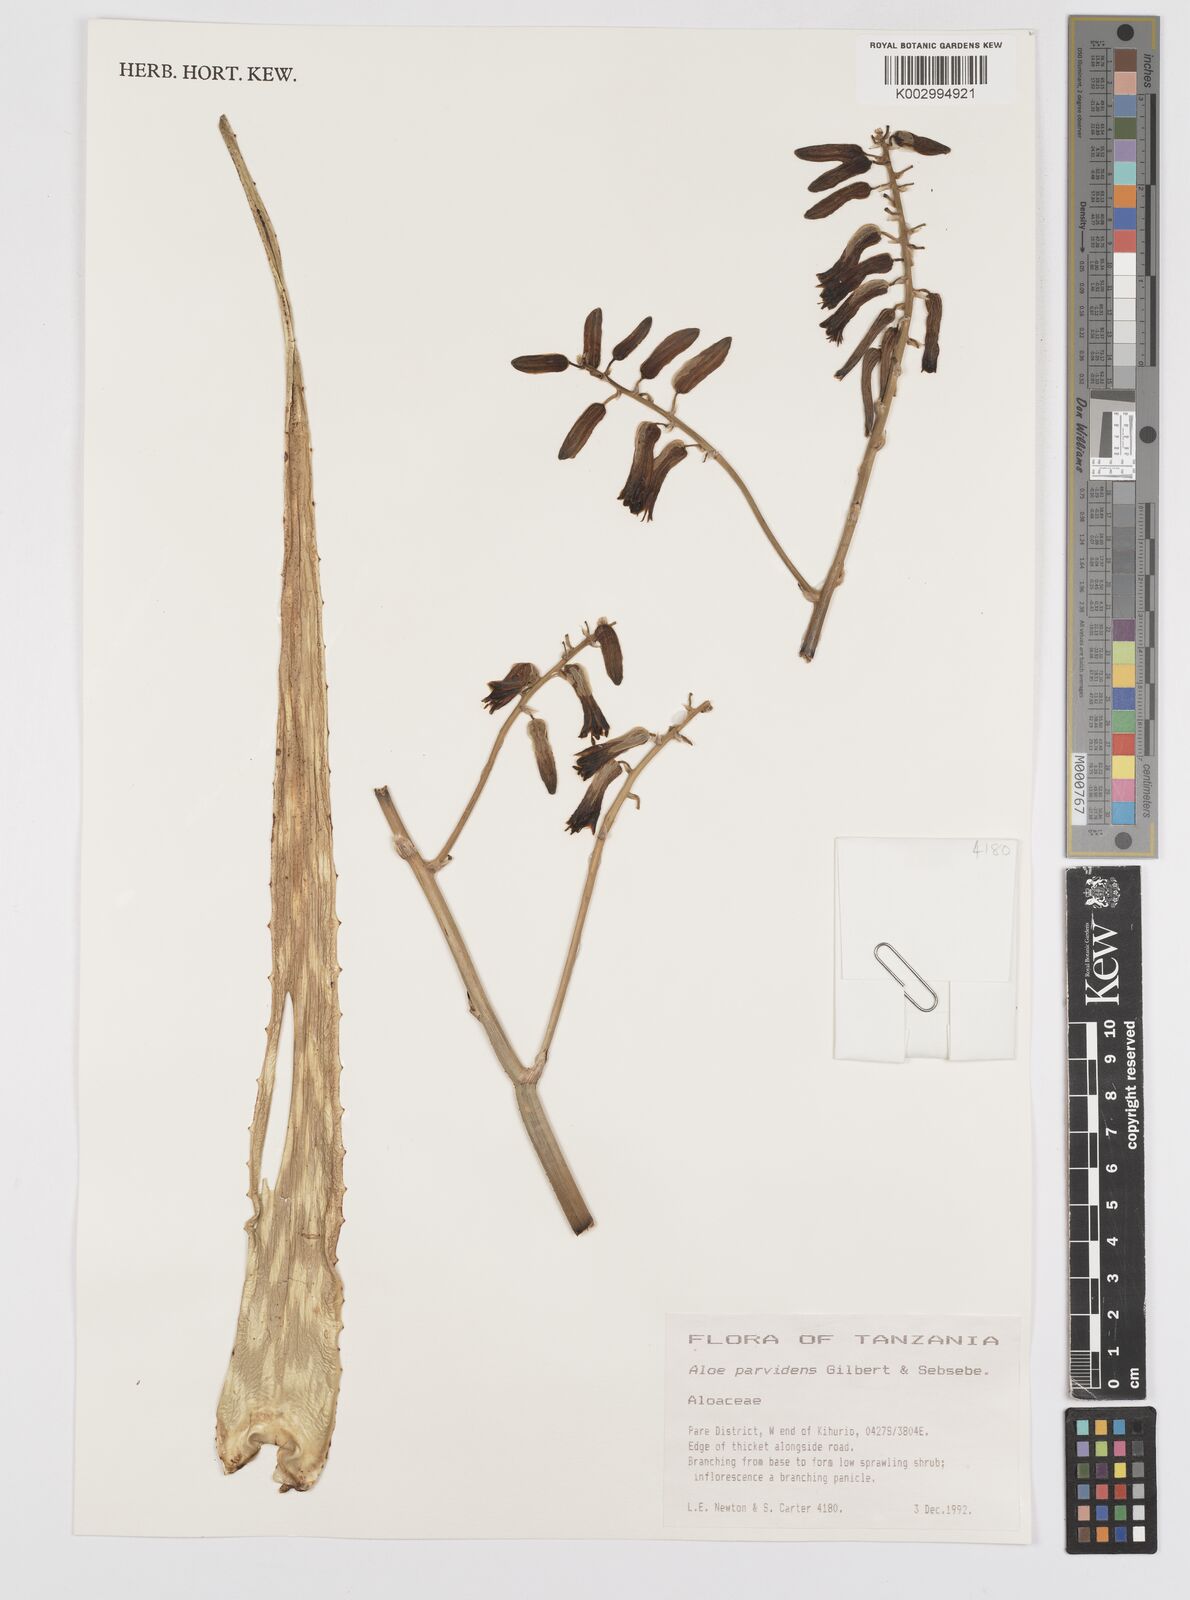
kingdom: Plantae
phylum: Tracheophyta
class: Liliopsida
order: Asparagales
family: Asphodelaceae
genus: Aloe
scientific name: Aloe parvidens
